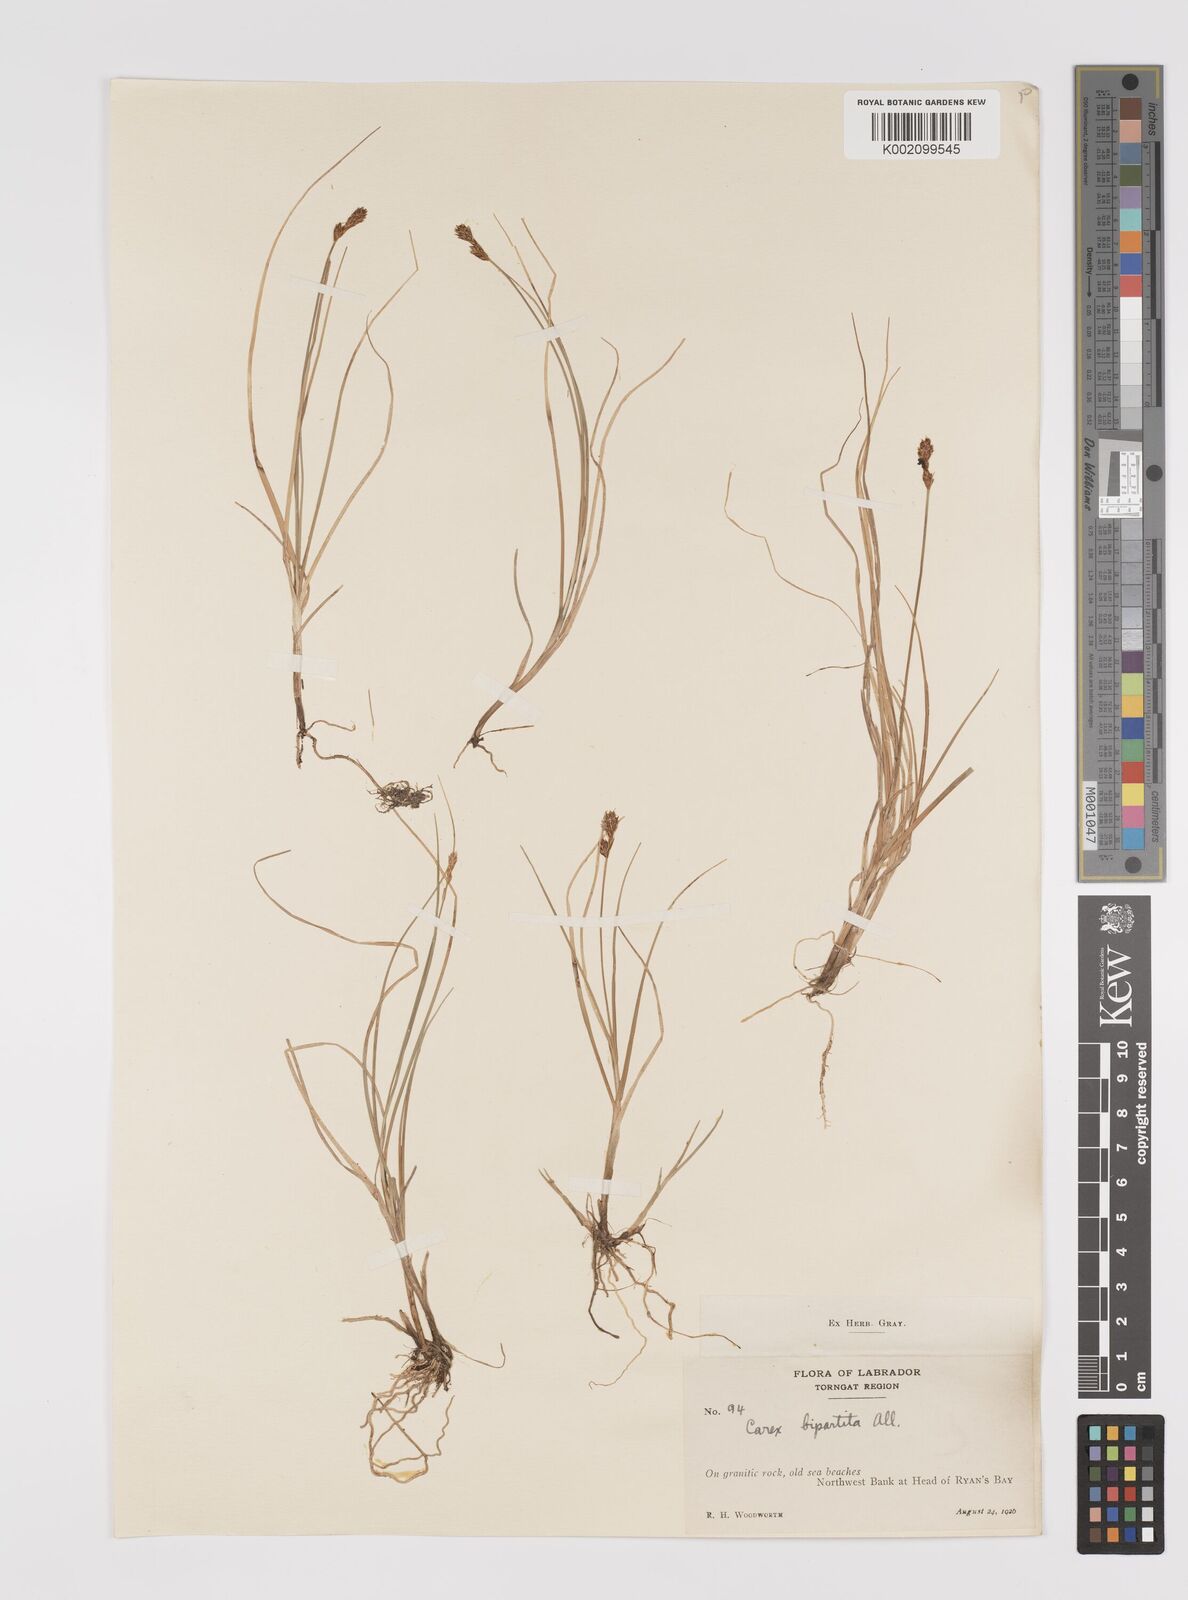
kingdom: Plantae
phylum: Tracheophyta
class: Liliopsida
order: Poales
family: Cyperaceae
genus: Carex
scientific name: Carex lachenalii
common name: Hare's-foot sedge
